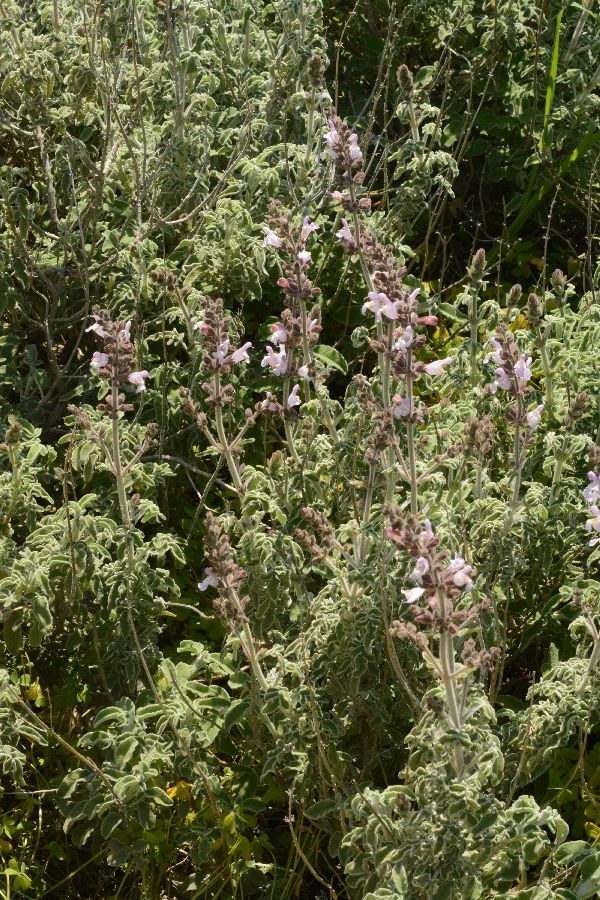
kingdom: Plantae
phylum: Tracheophyta
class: Magnoliopsida
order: Lamiales
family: Lamiaceae
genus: Salvia
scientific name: Salvia fruticosa
